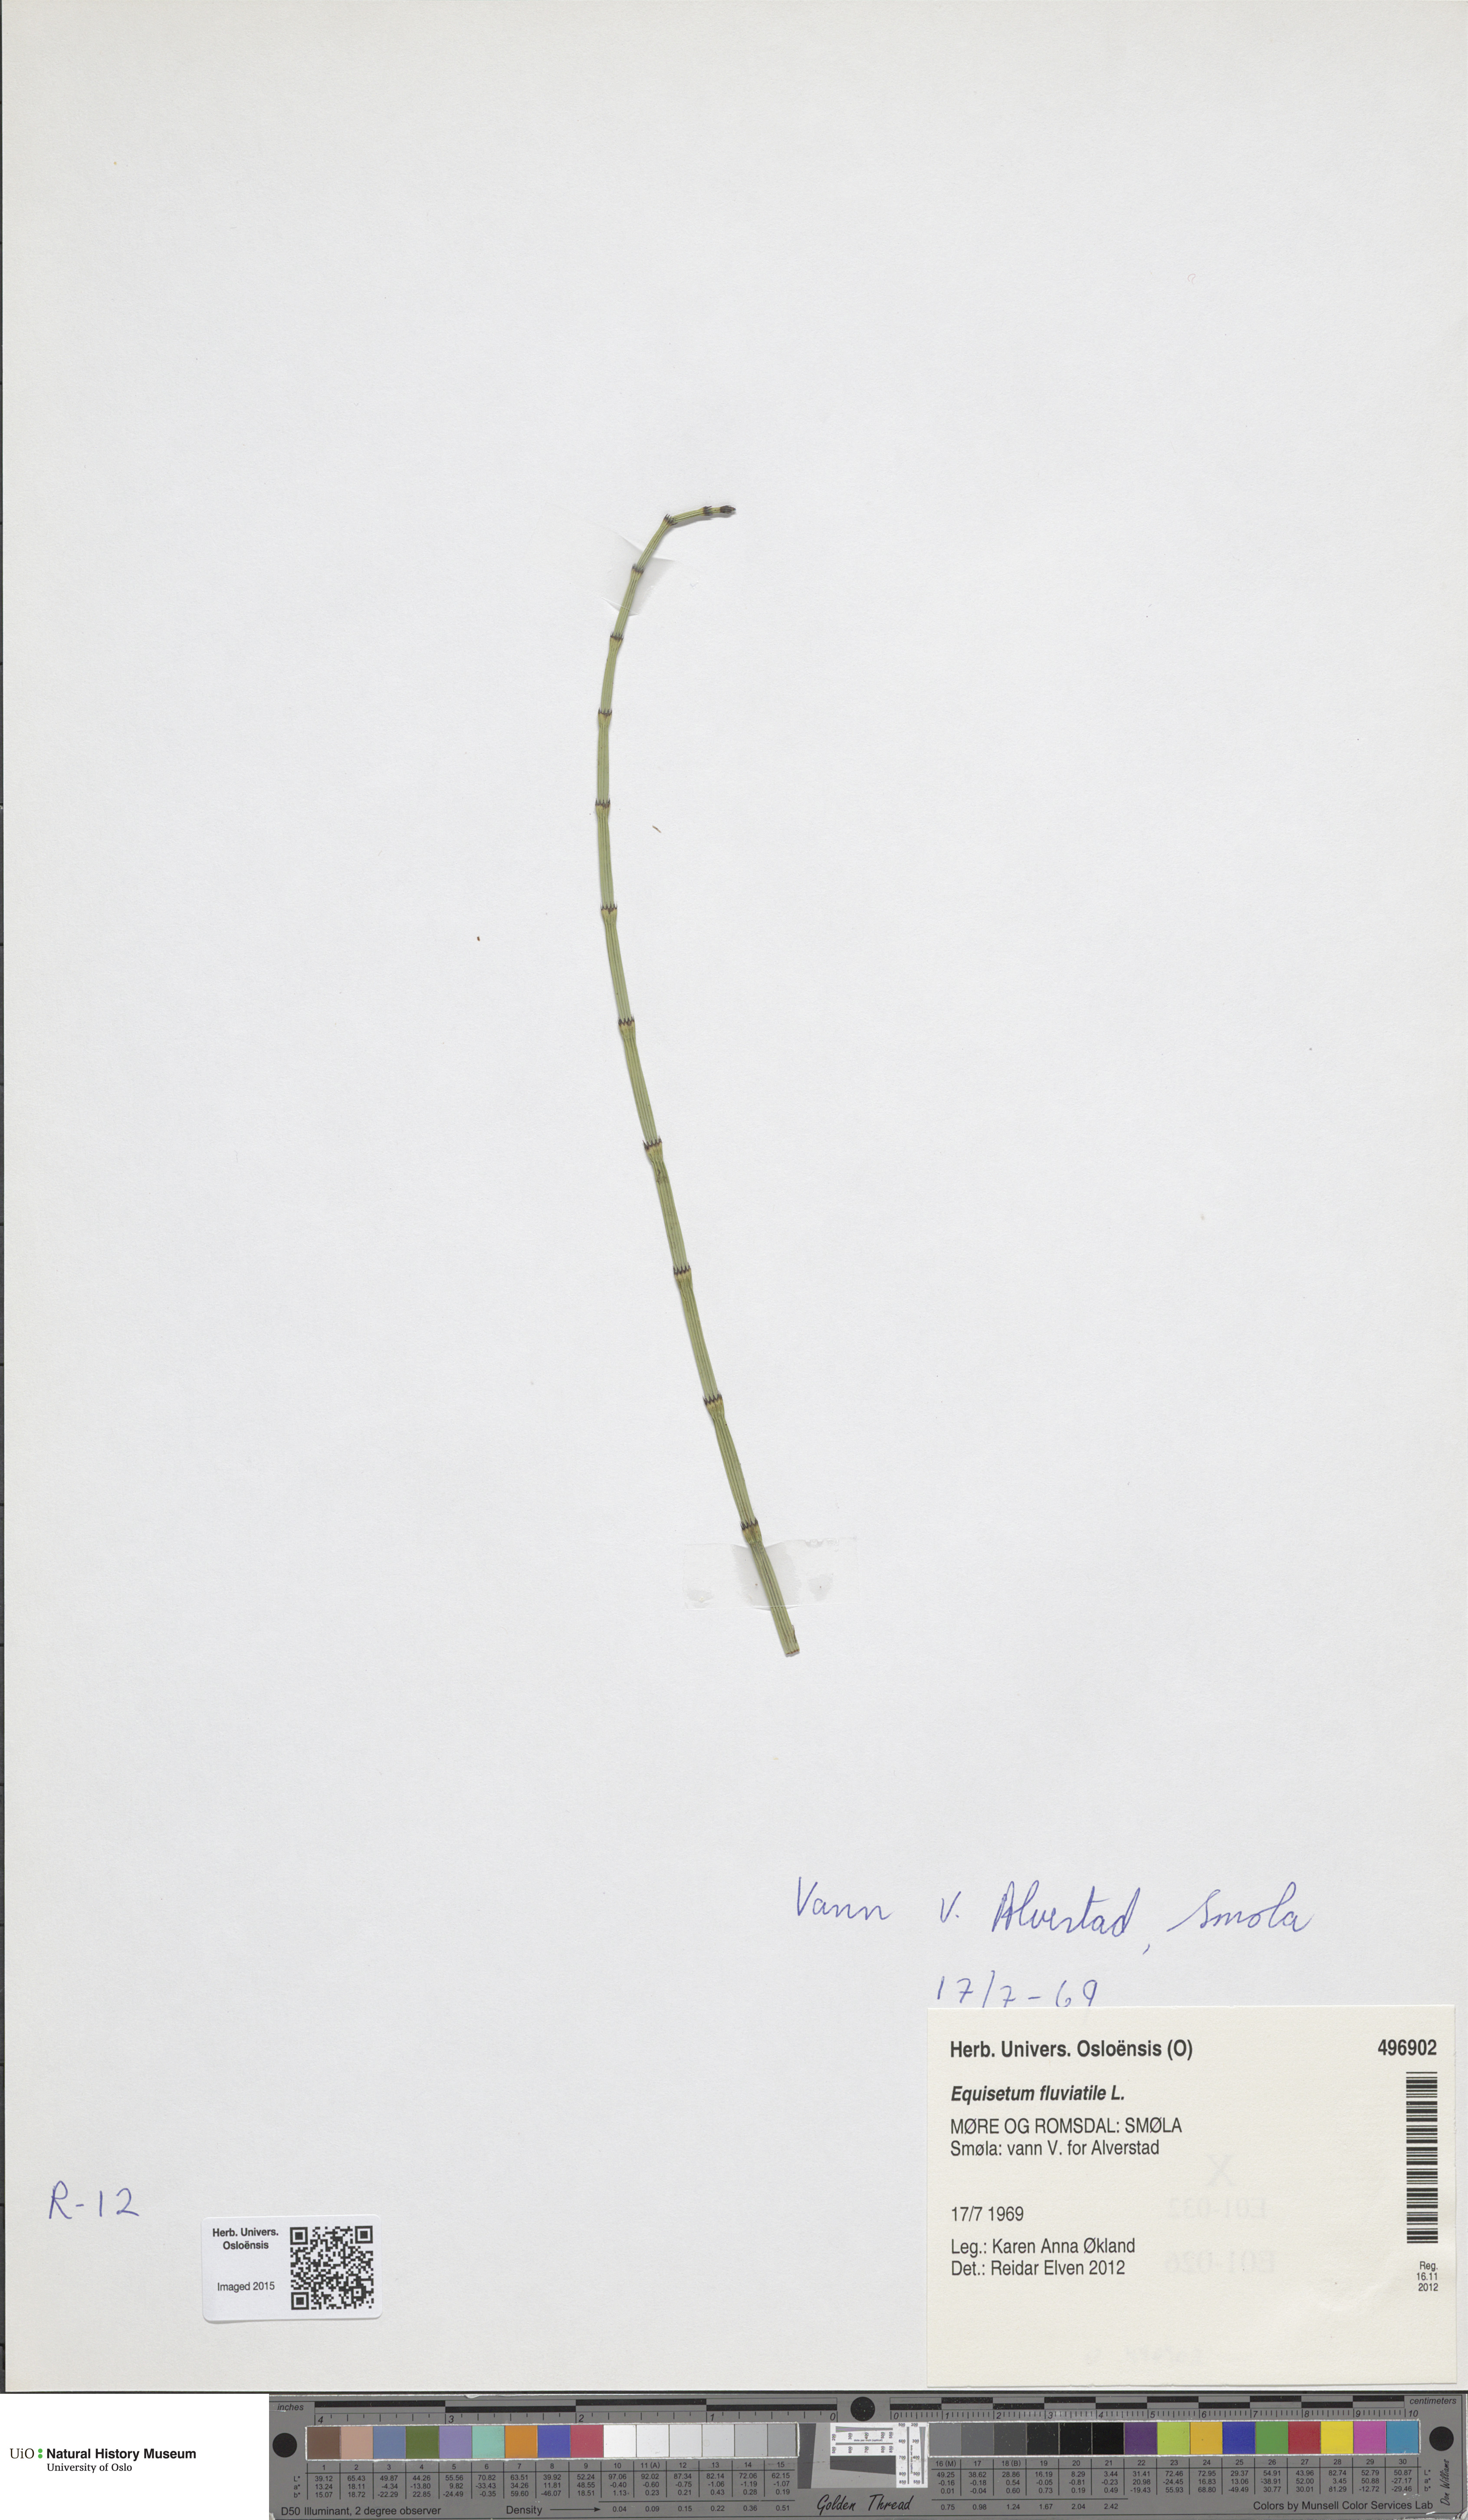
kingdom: Plantae
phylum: Tracheophyta
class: Polypodiopsida
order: Equisetales
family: Equisetaceae
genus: Equisetum
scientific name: Equisetum fluviatile
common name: Water horsetail
